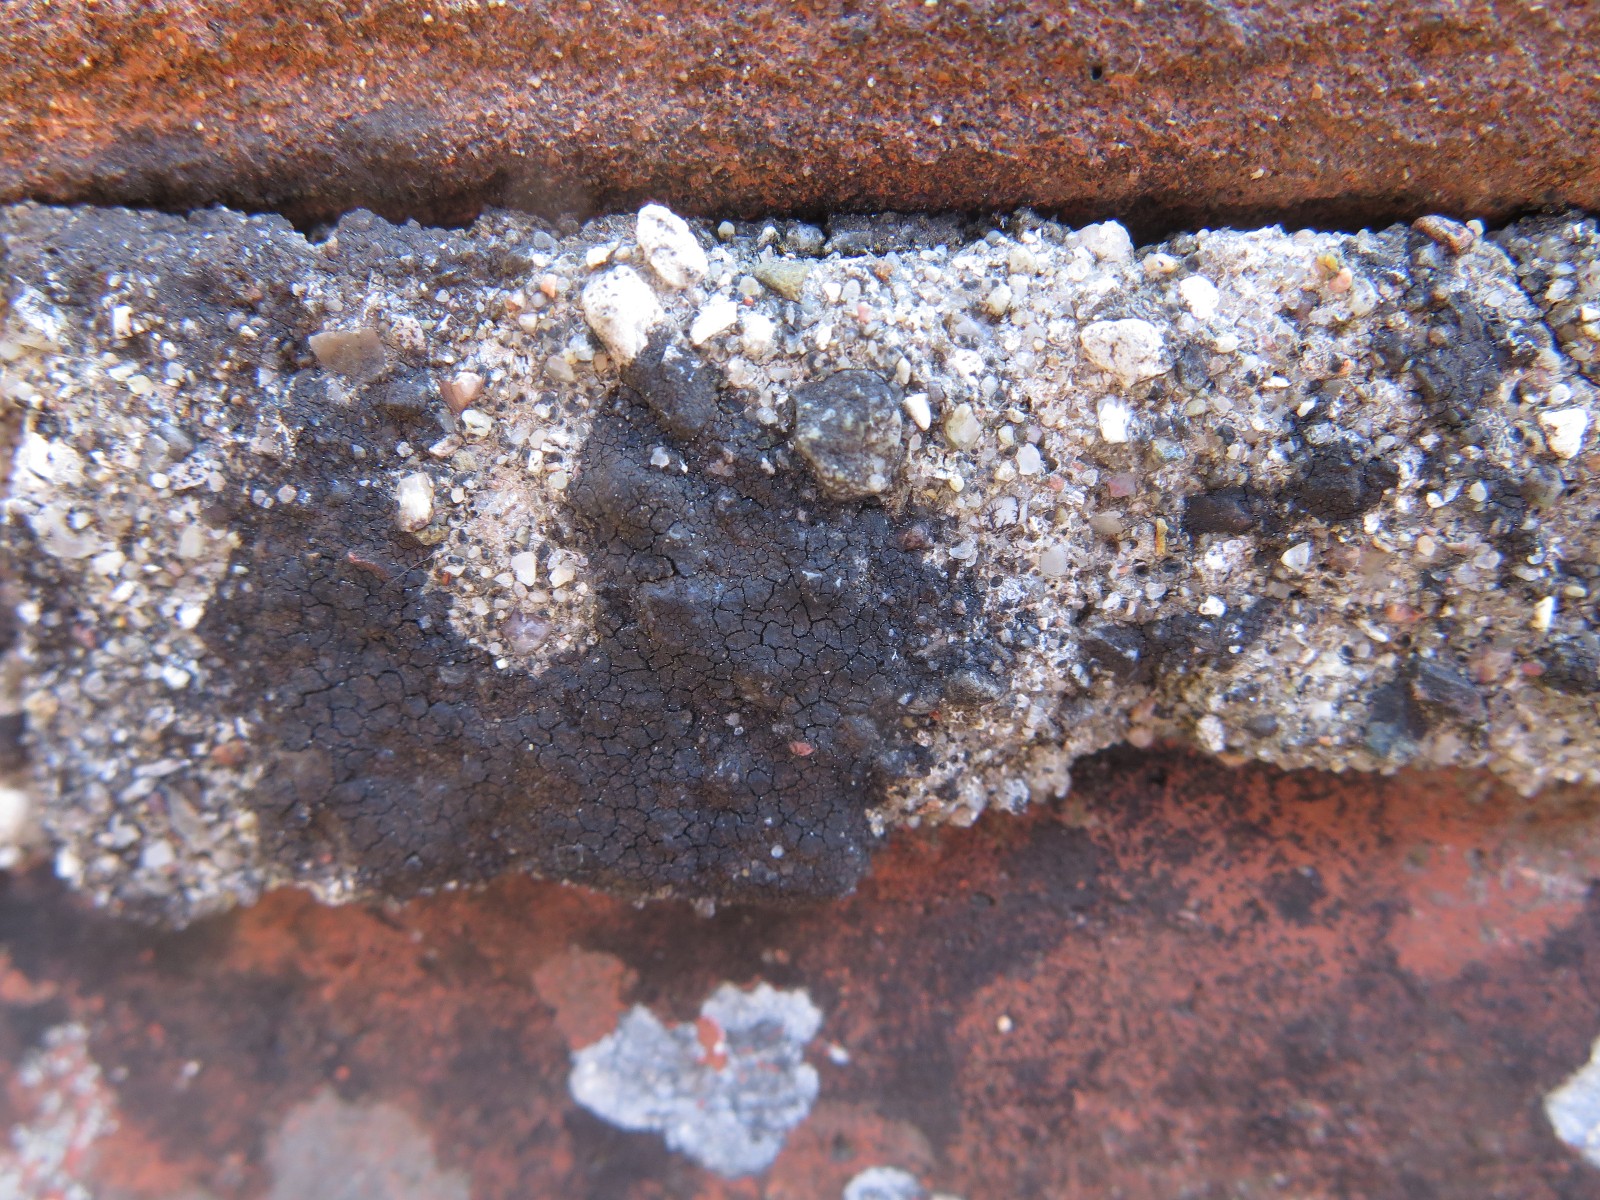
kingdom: Fungi
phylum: Ascomycota
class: Eurotiomycetes
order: Verrucariales
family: Verrucariaceae
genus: Verrucaria
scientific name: Verrucaria nigrescens
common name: sortbrun vortelav
